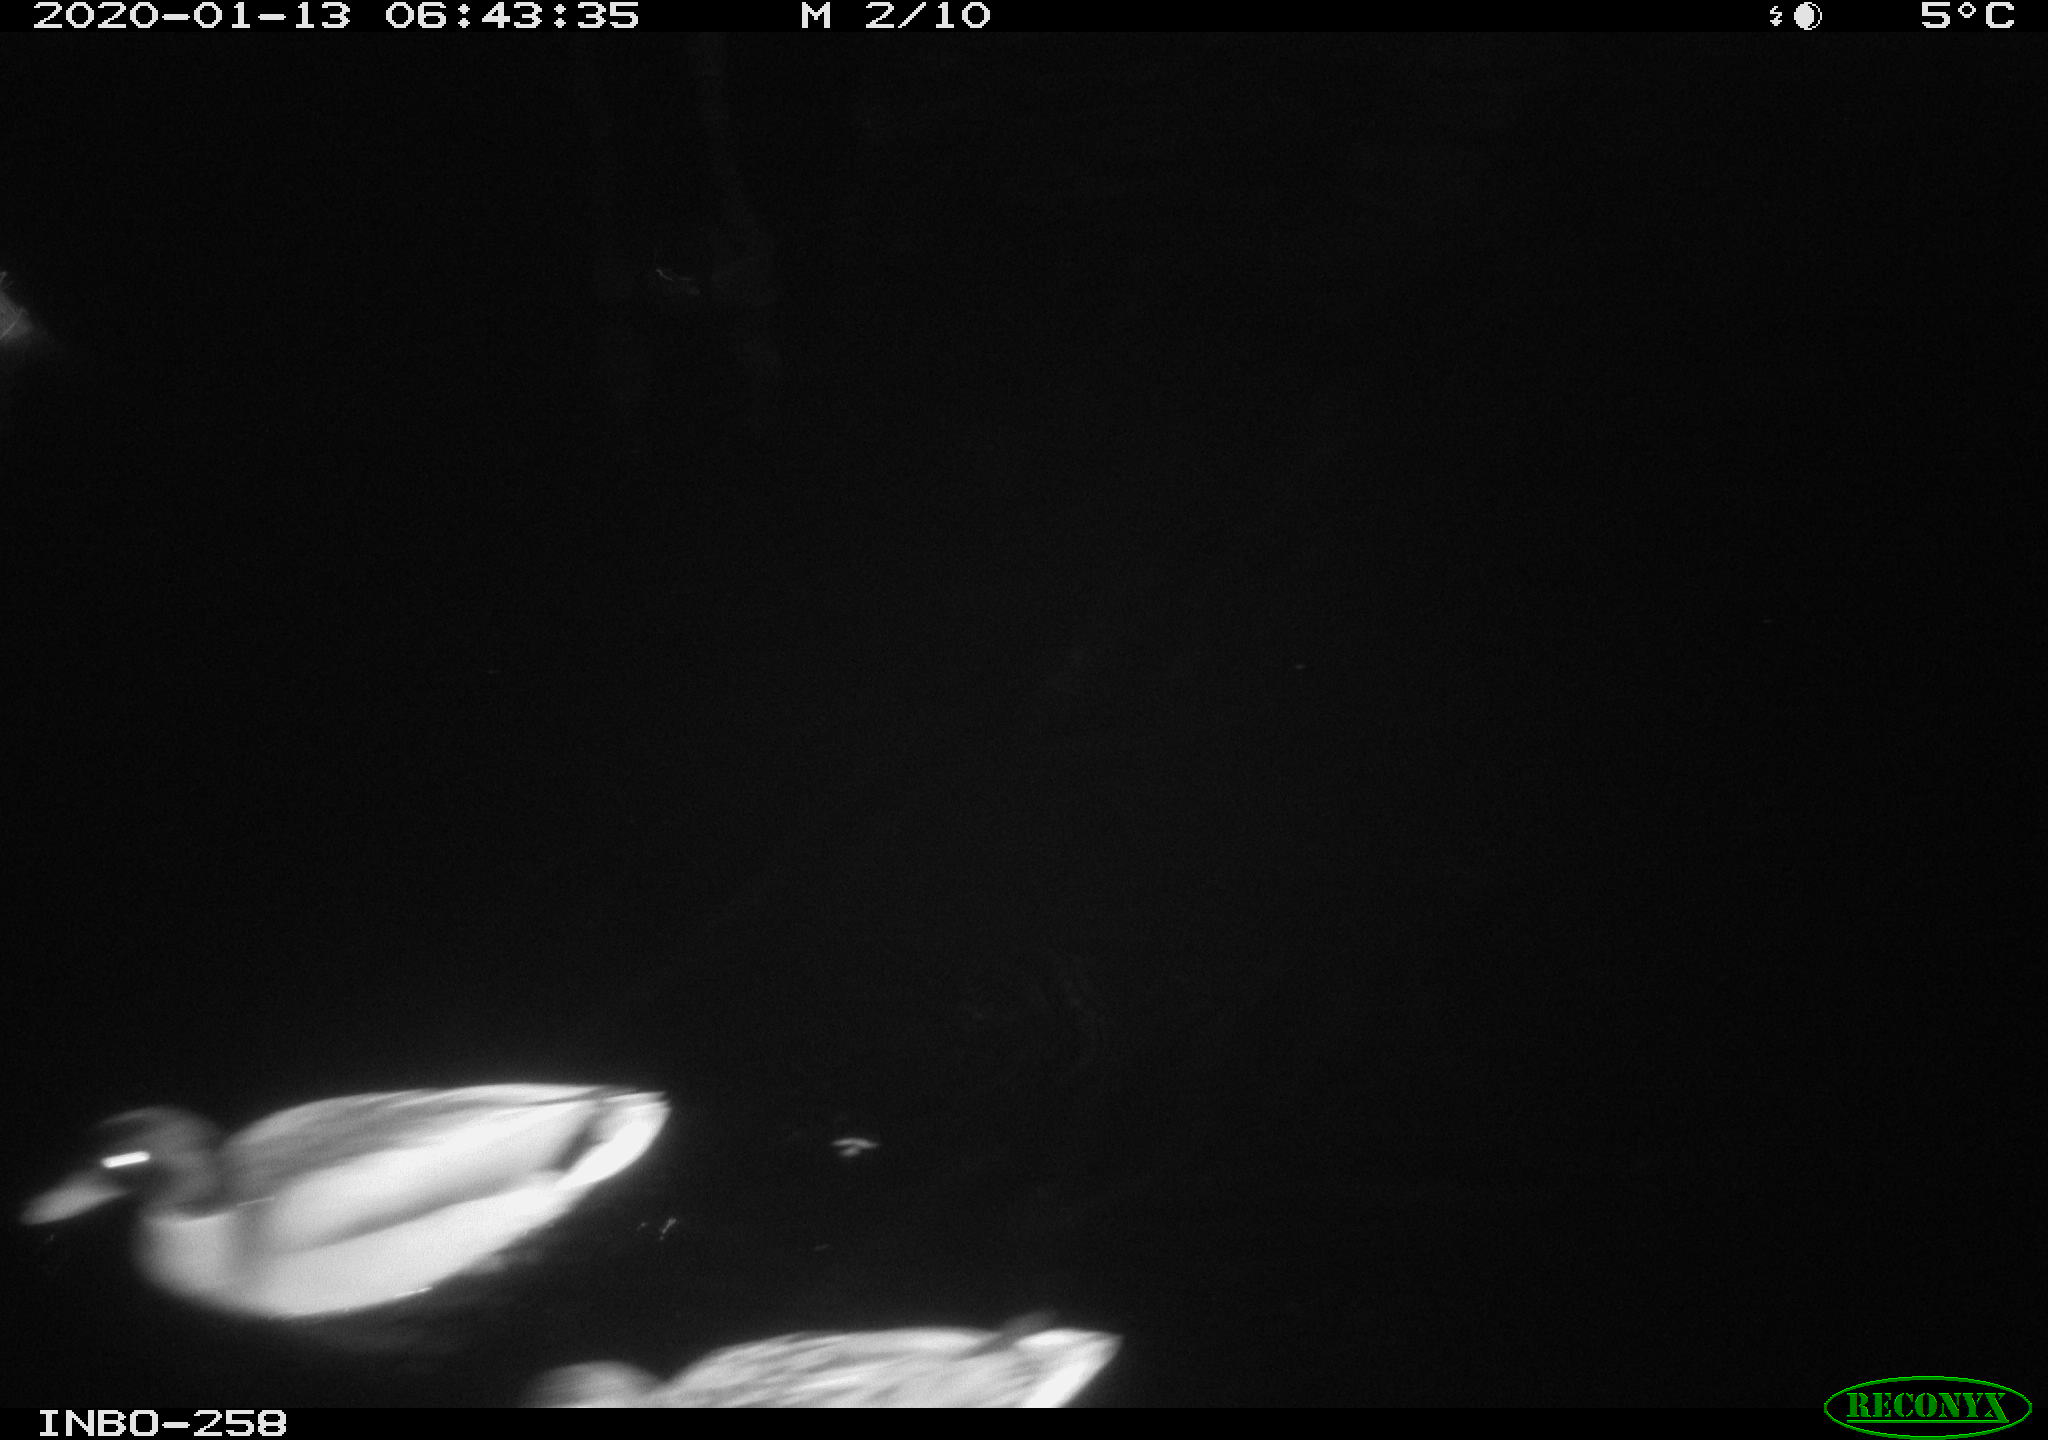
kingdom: Animalia
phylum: Chordata
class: Aves
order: Anseriformes
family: Anatidae
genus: Anas
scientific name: Anas platyrhynchos
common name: Mallard
